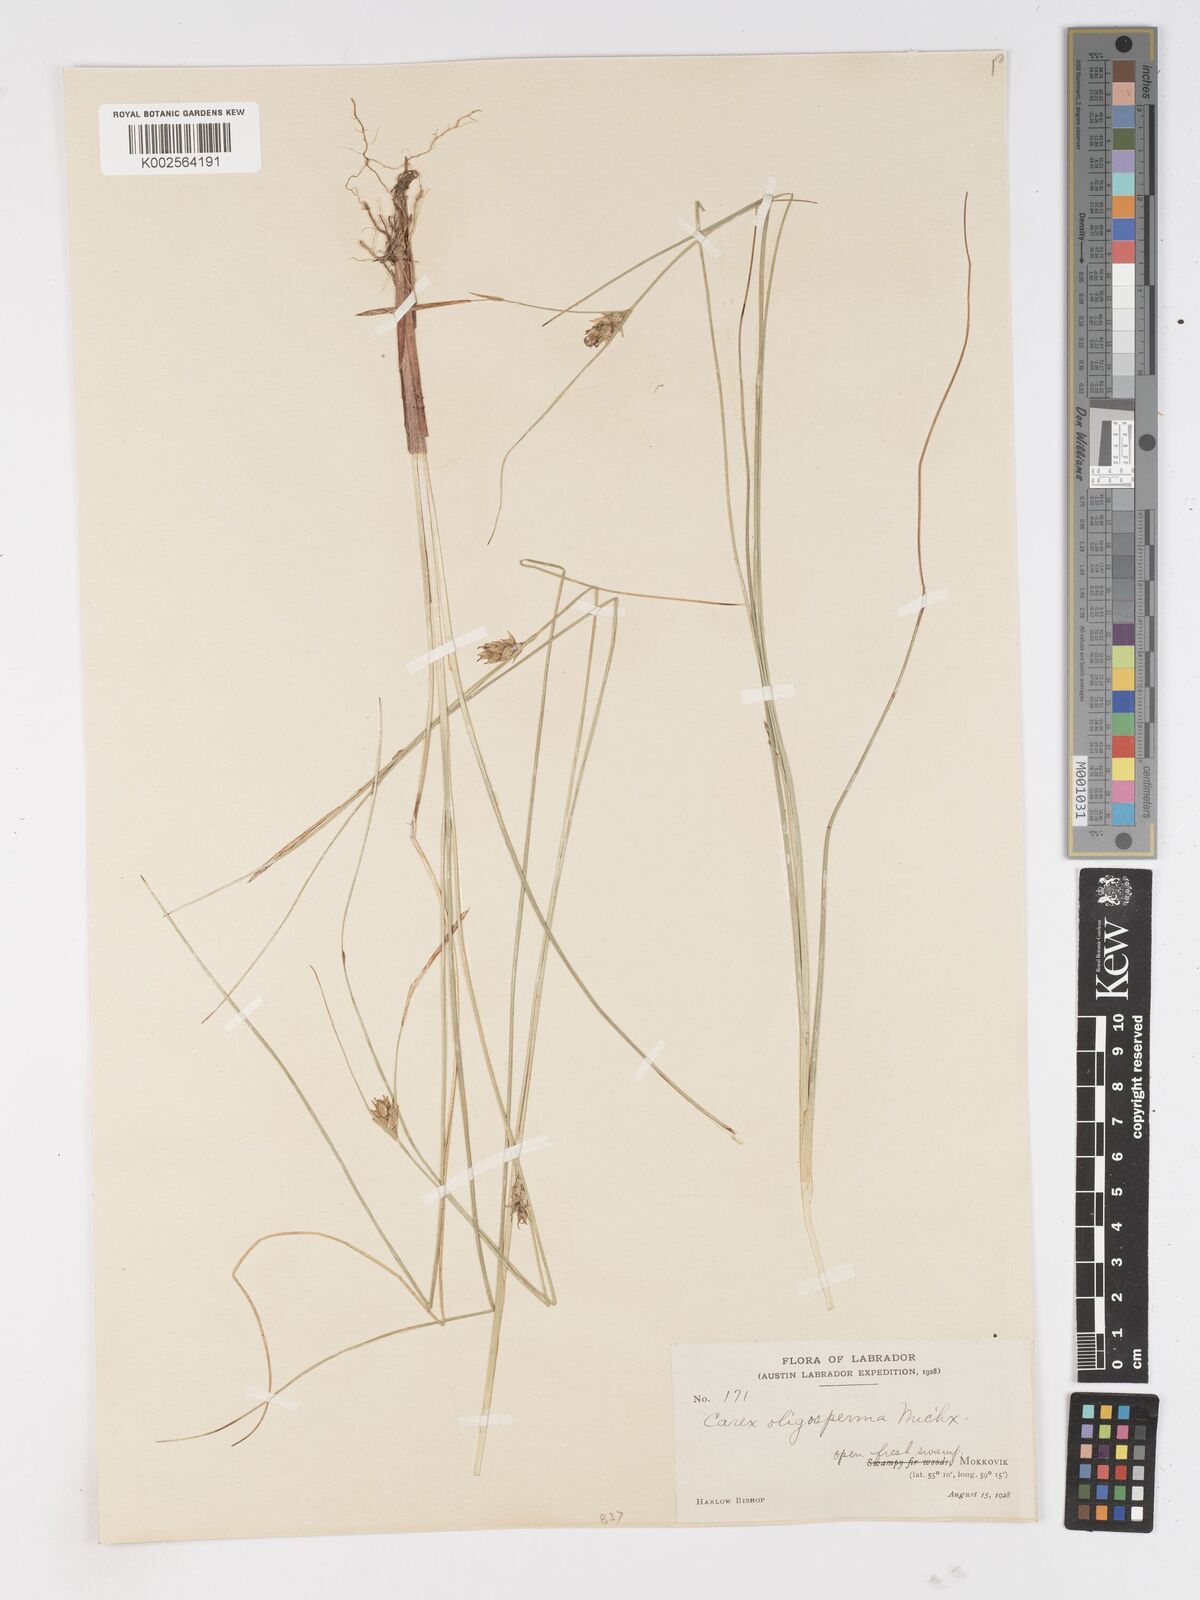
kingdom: Plantae
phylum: Tracheophyta
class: Liliopsida
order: Poales
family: Cyperaceae
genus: Carex
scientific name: Carex oligosperma
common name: Few-seed sedge
